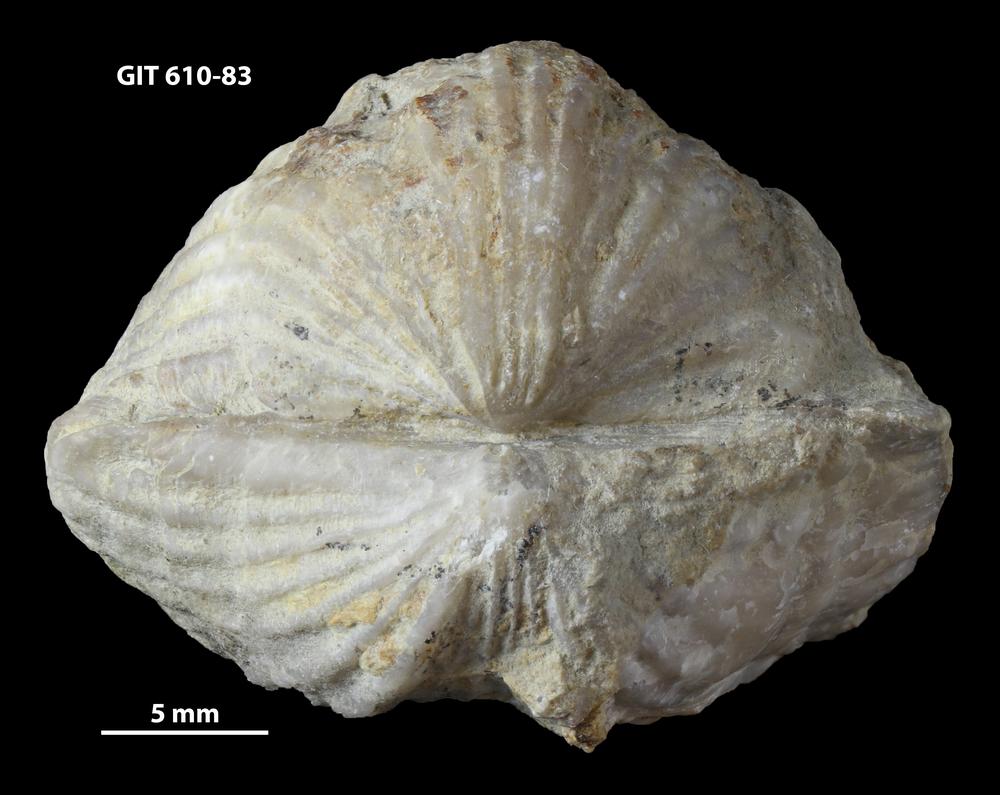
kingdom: Animalia
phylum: Brachiopoda
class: Rhynchonellata
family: Triplesiidae
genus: Ogmoplecia
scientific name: Ogmoplecia
